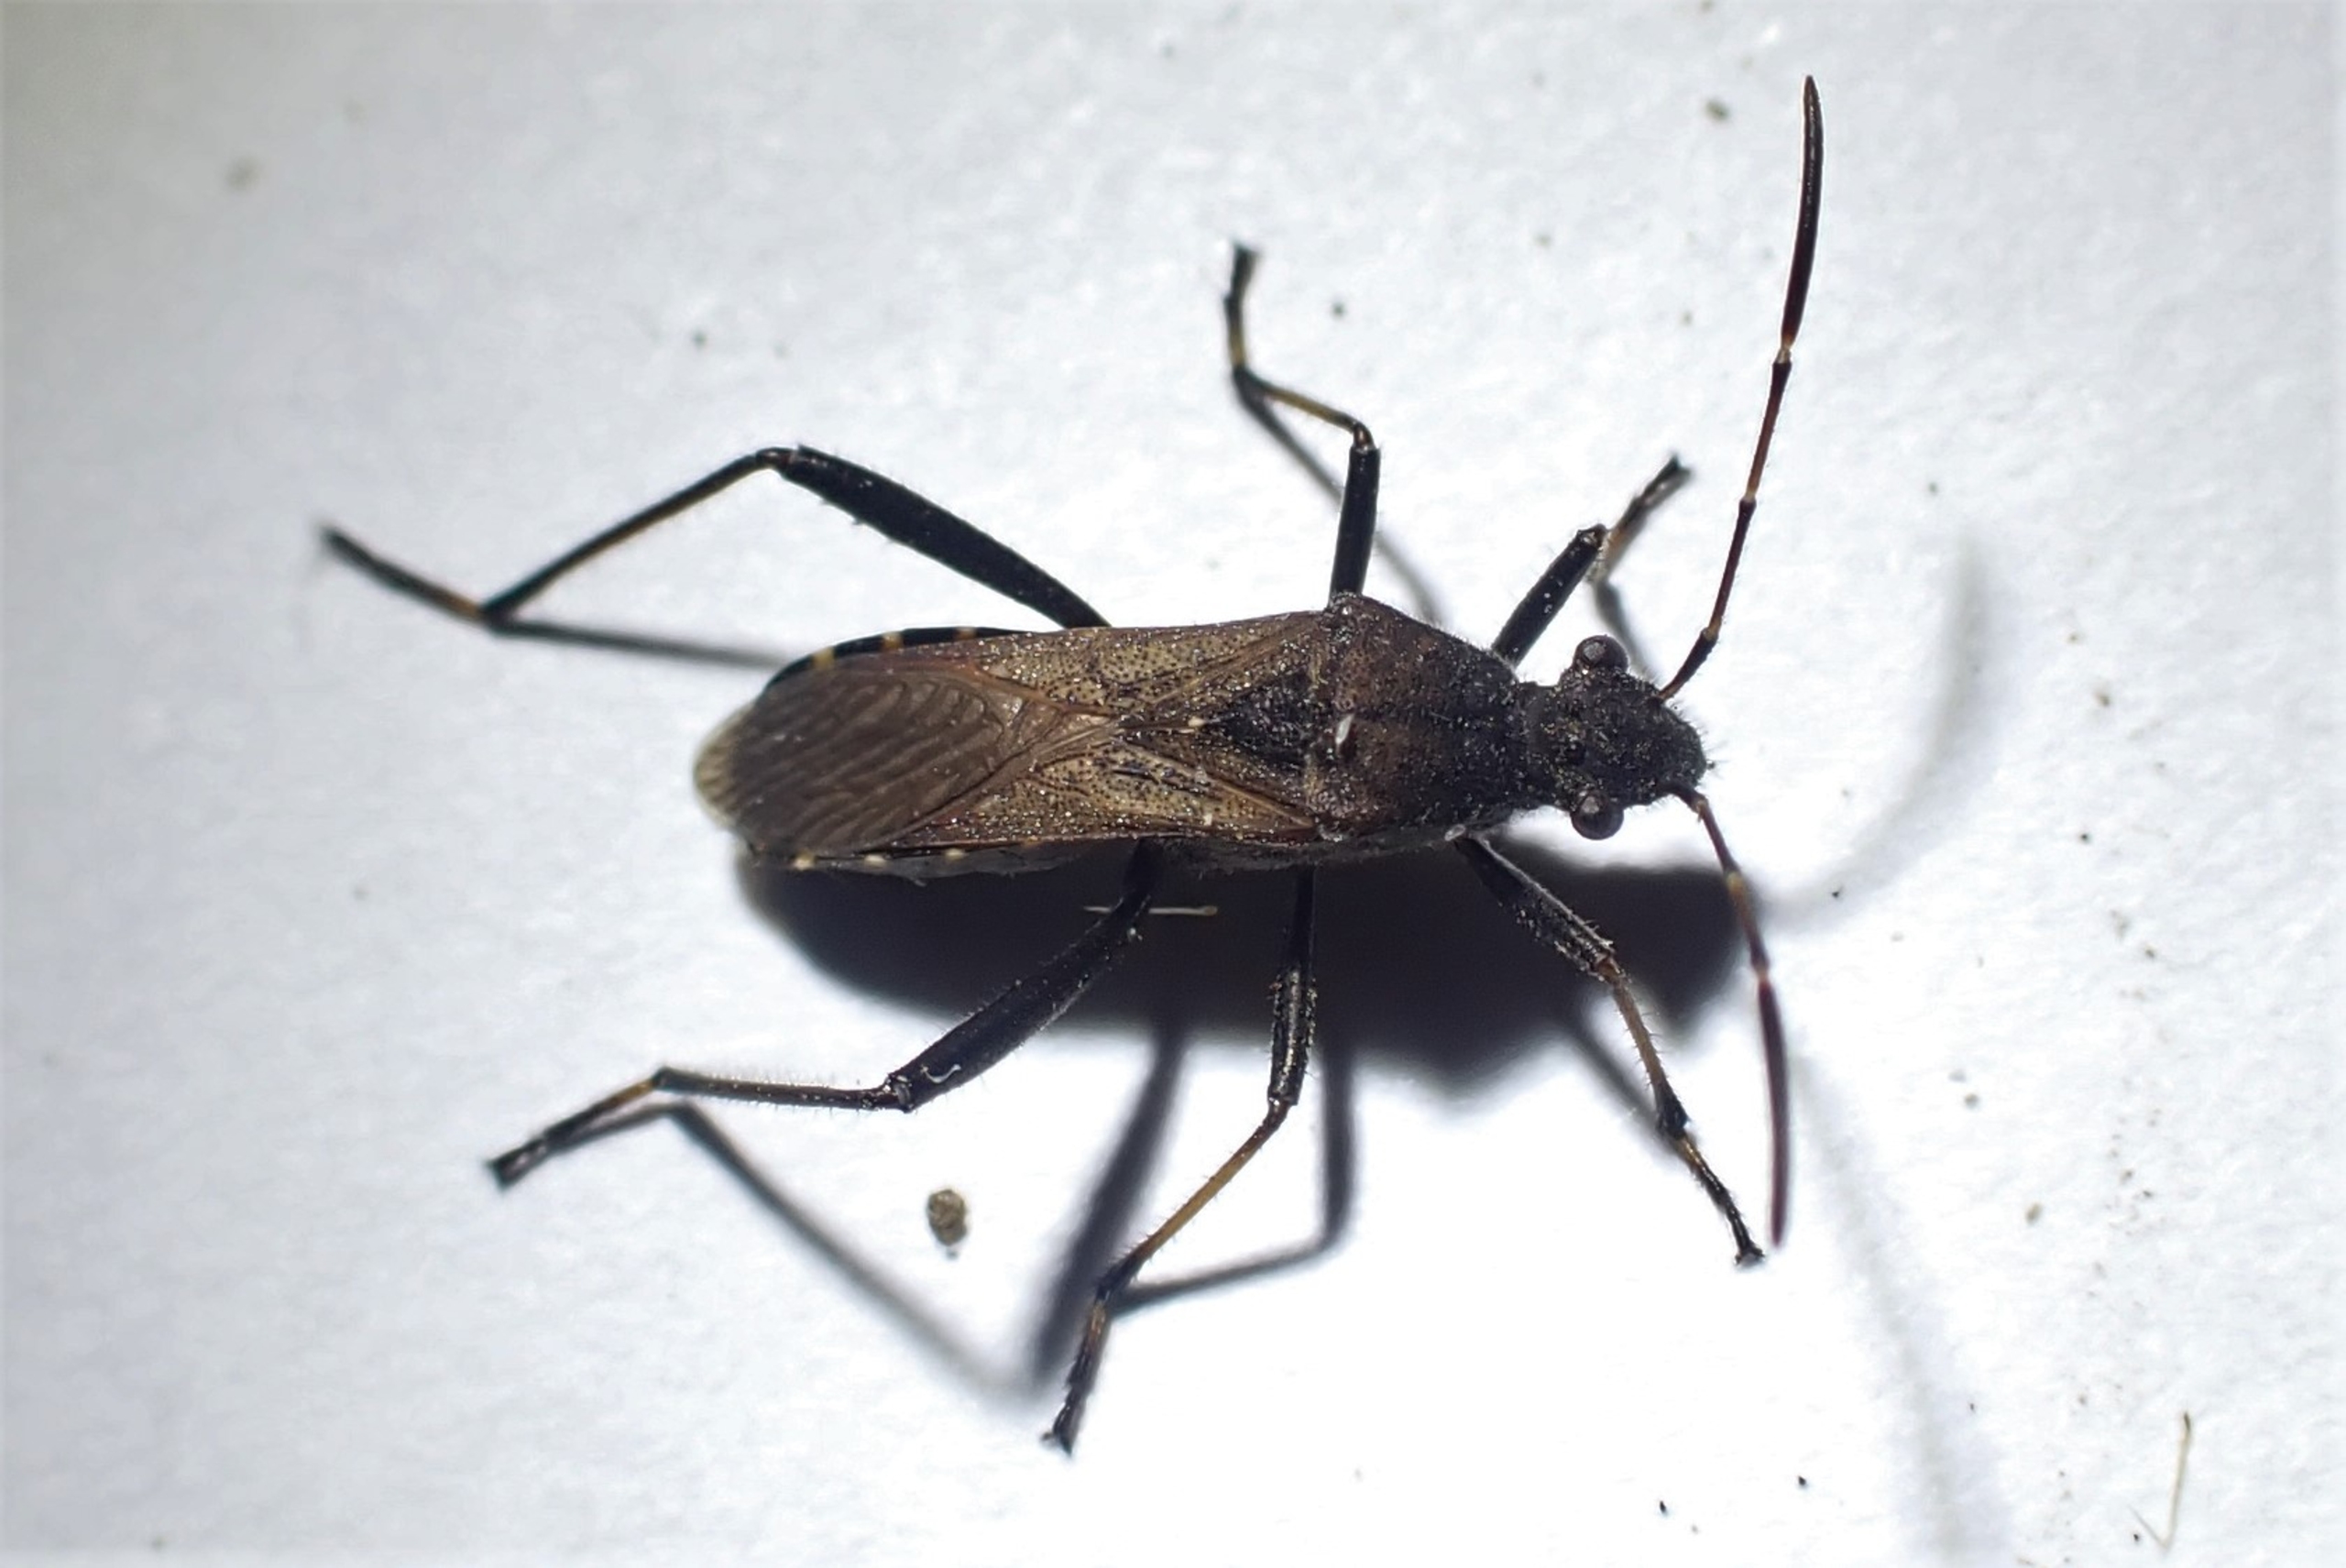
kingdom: Animalia
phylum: Arthropoda
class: Insecta
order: Hemiptera
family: Alydidae
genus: Alydus
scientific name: Alydus calcaratus
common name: Hvepsetæge
